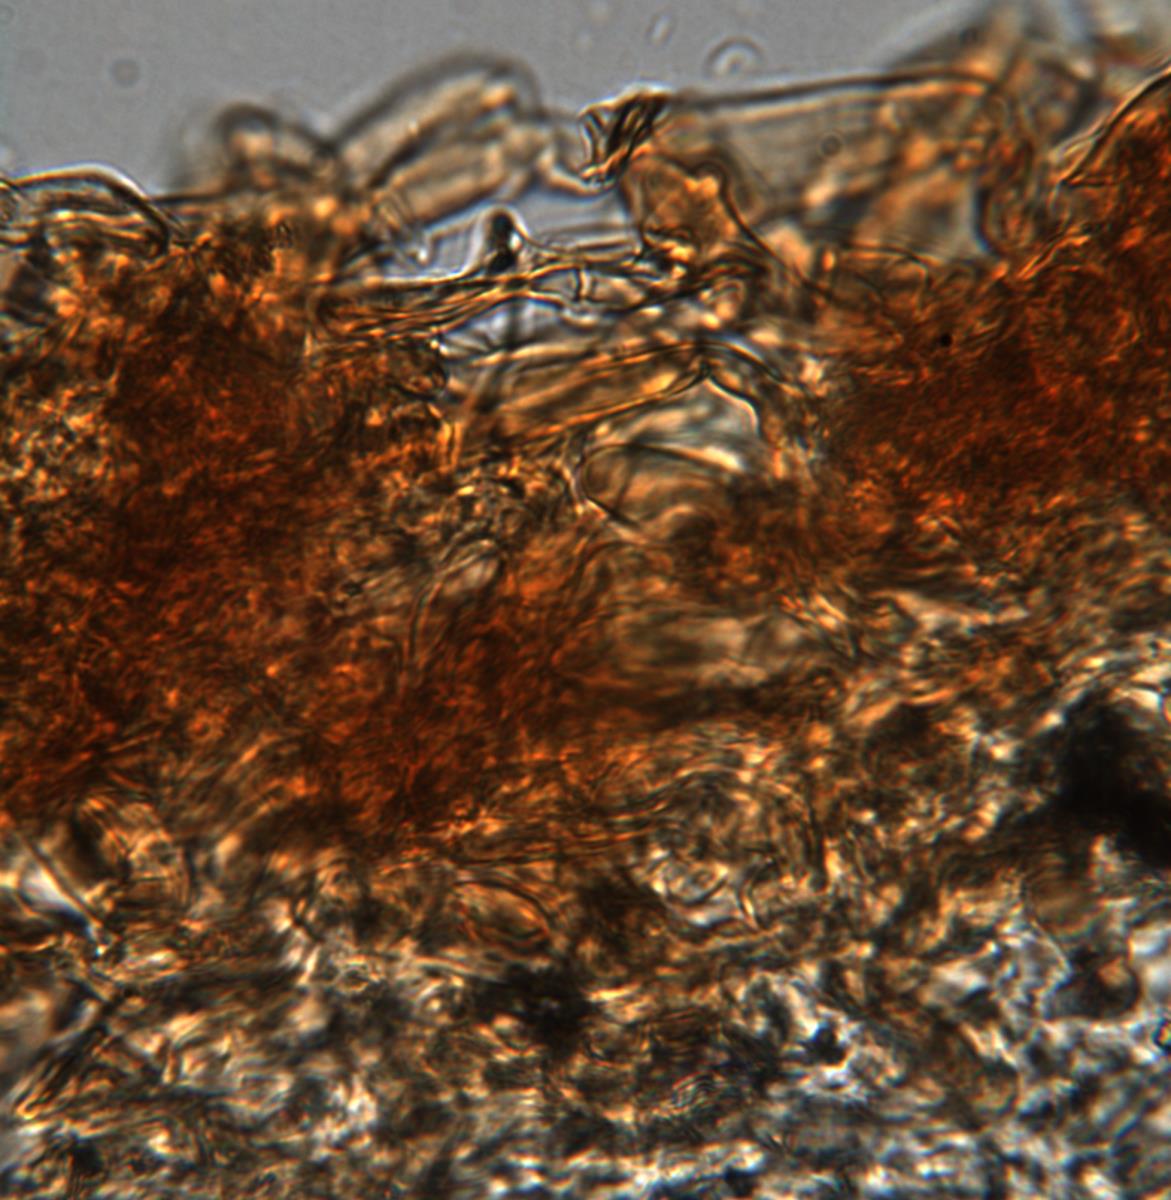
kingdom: Fungi
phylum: Basidiomycota
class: Agaricomycetes
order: Agaricales
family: Bolbitiaceae
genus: Descomyces
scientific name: Descomyces
